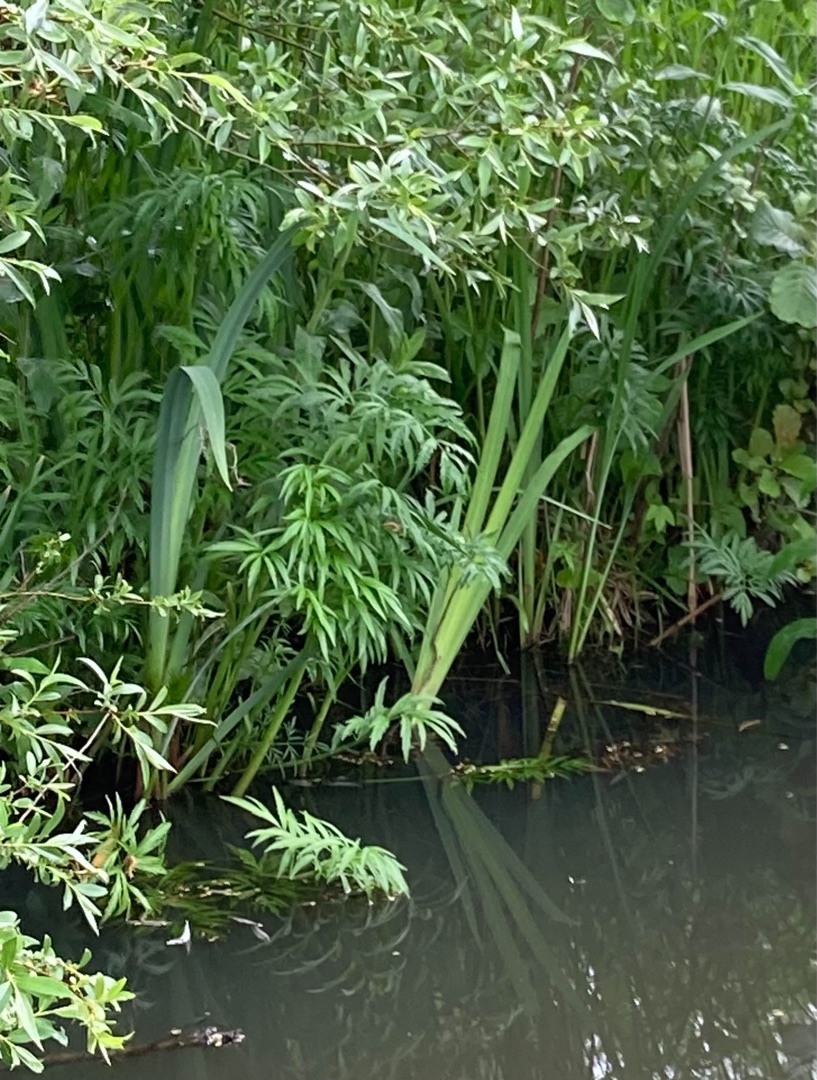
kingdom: Plantae
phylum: Tracheophyta
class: Magnoliopsida
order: Apiales
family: Apiaceae
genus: Cicuta
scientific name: Cicuta virosa
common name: Gifttyde
